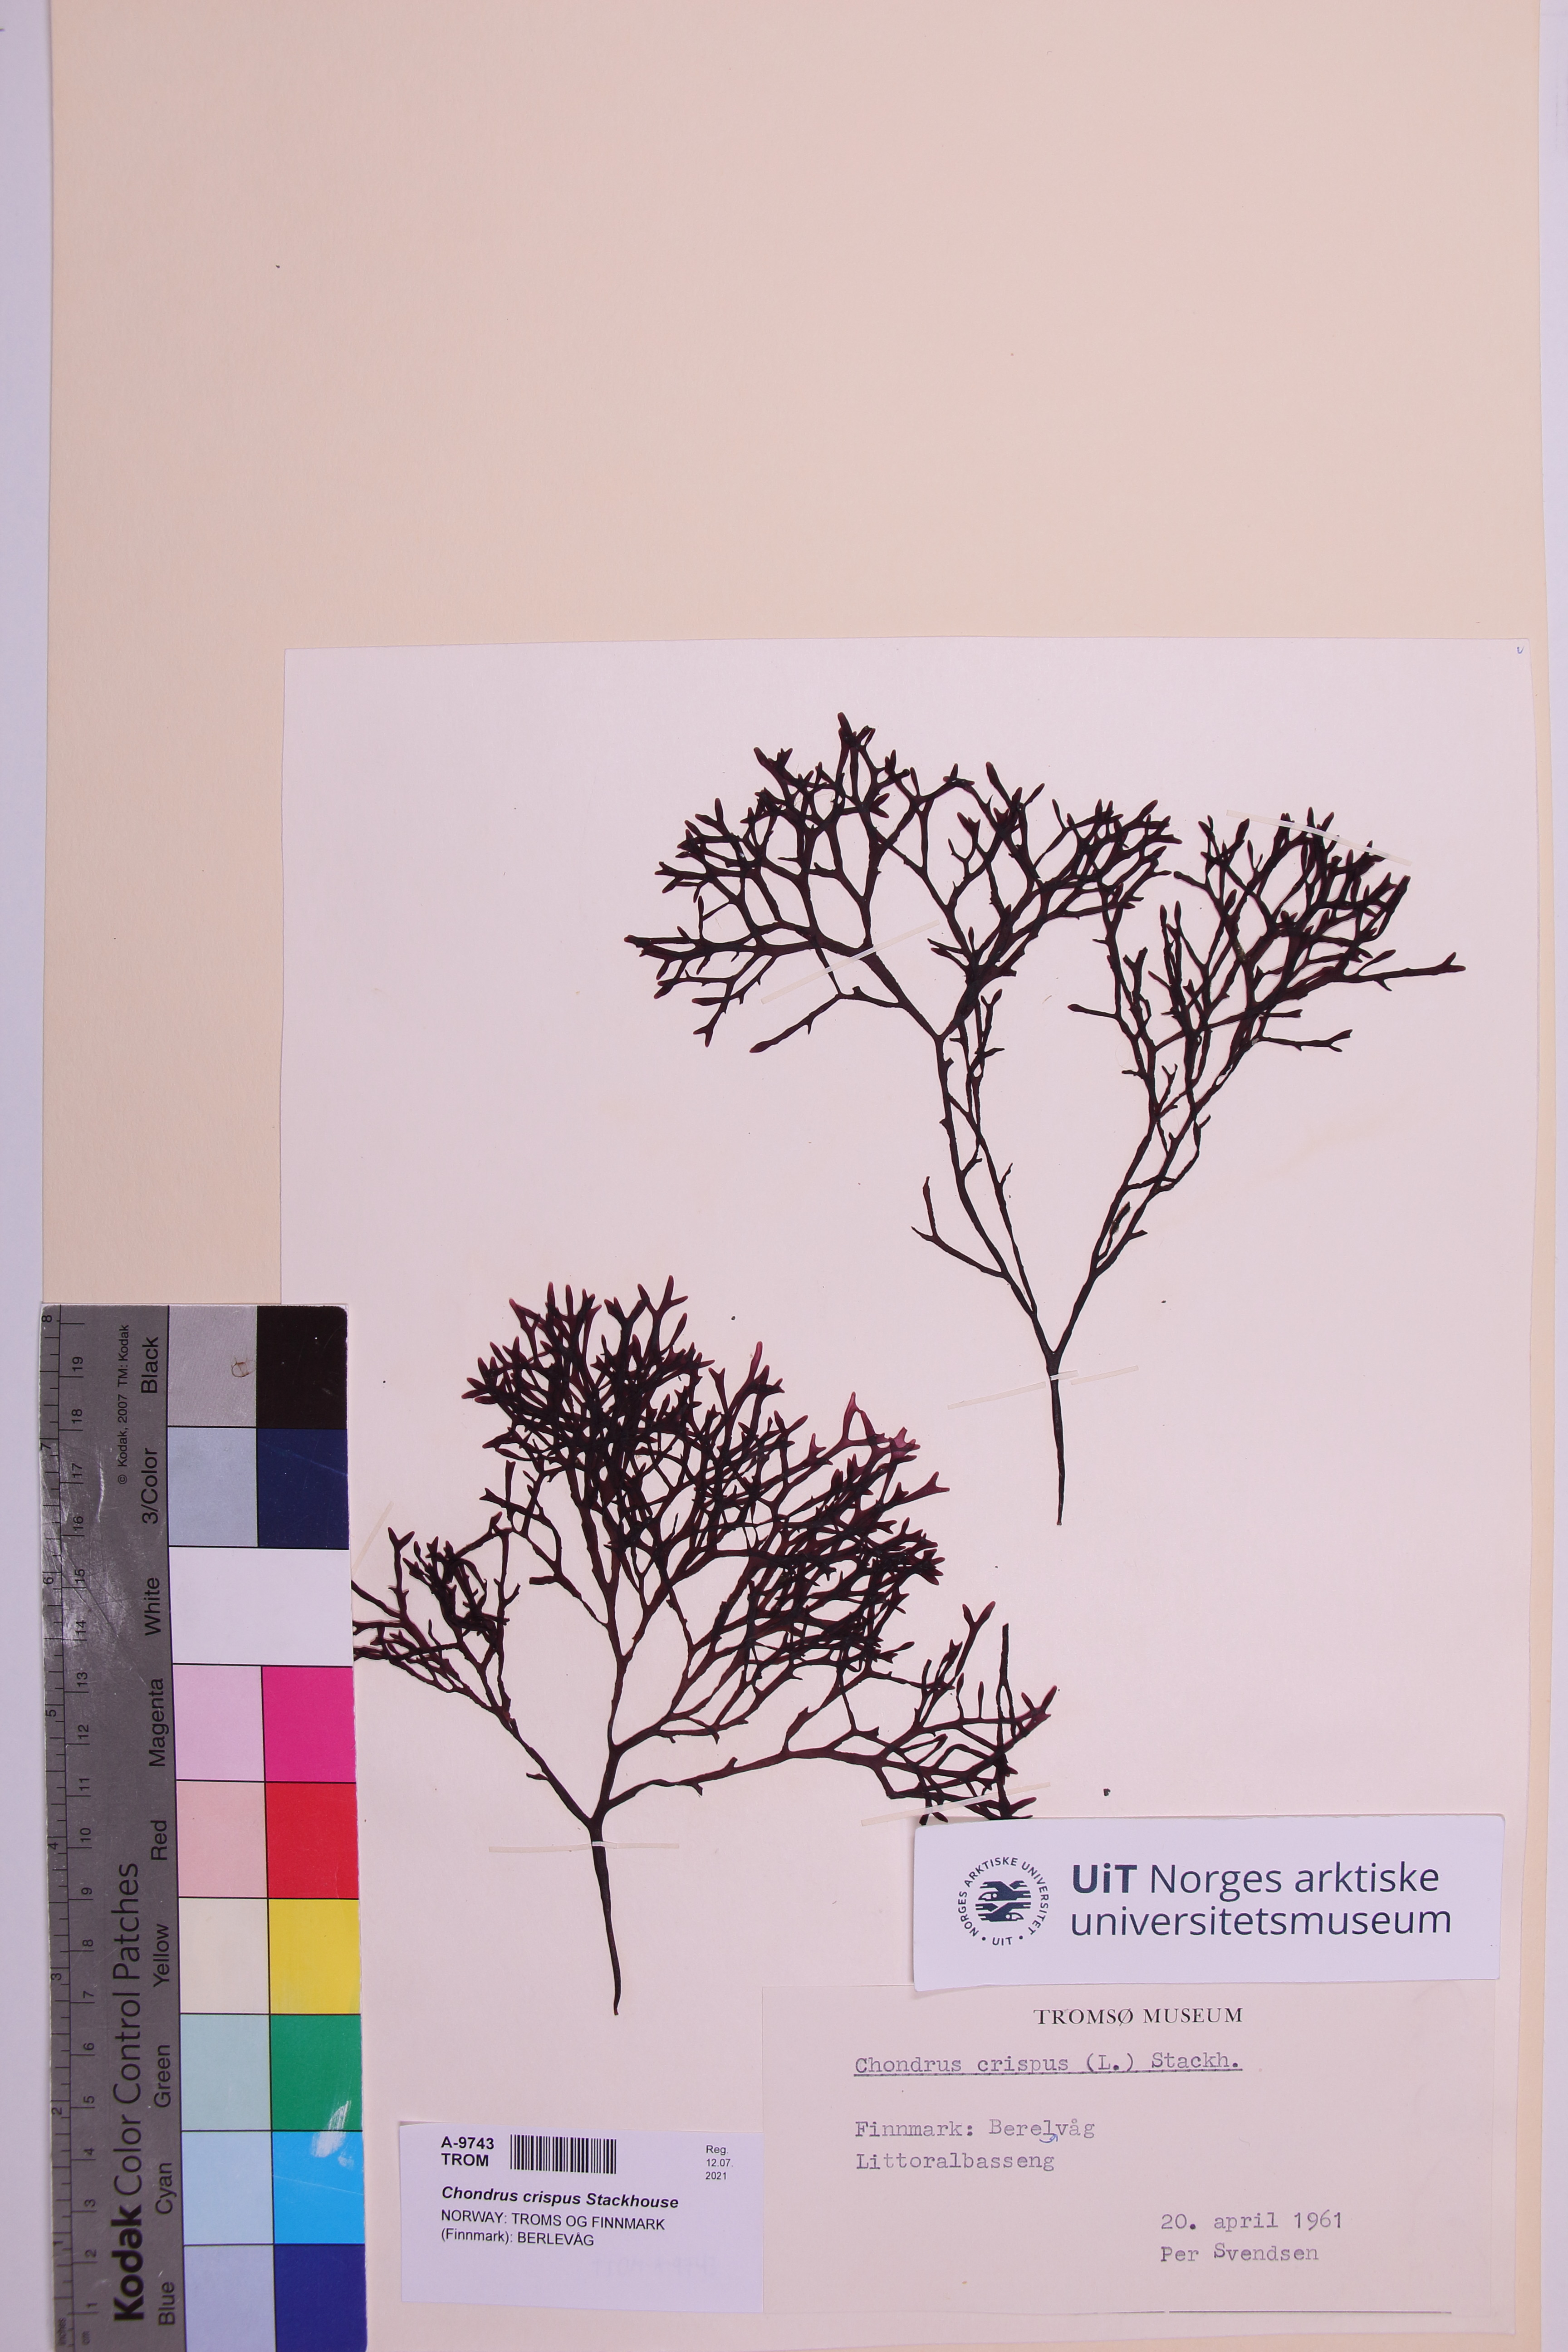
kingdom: Plantae
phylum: Rhodophyta
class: Florideophyceae
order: Gigartinales
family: Gigartinaceae
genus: Chondrus
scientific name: Chondrus crispus
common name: Carrageen
